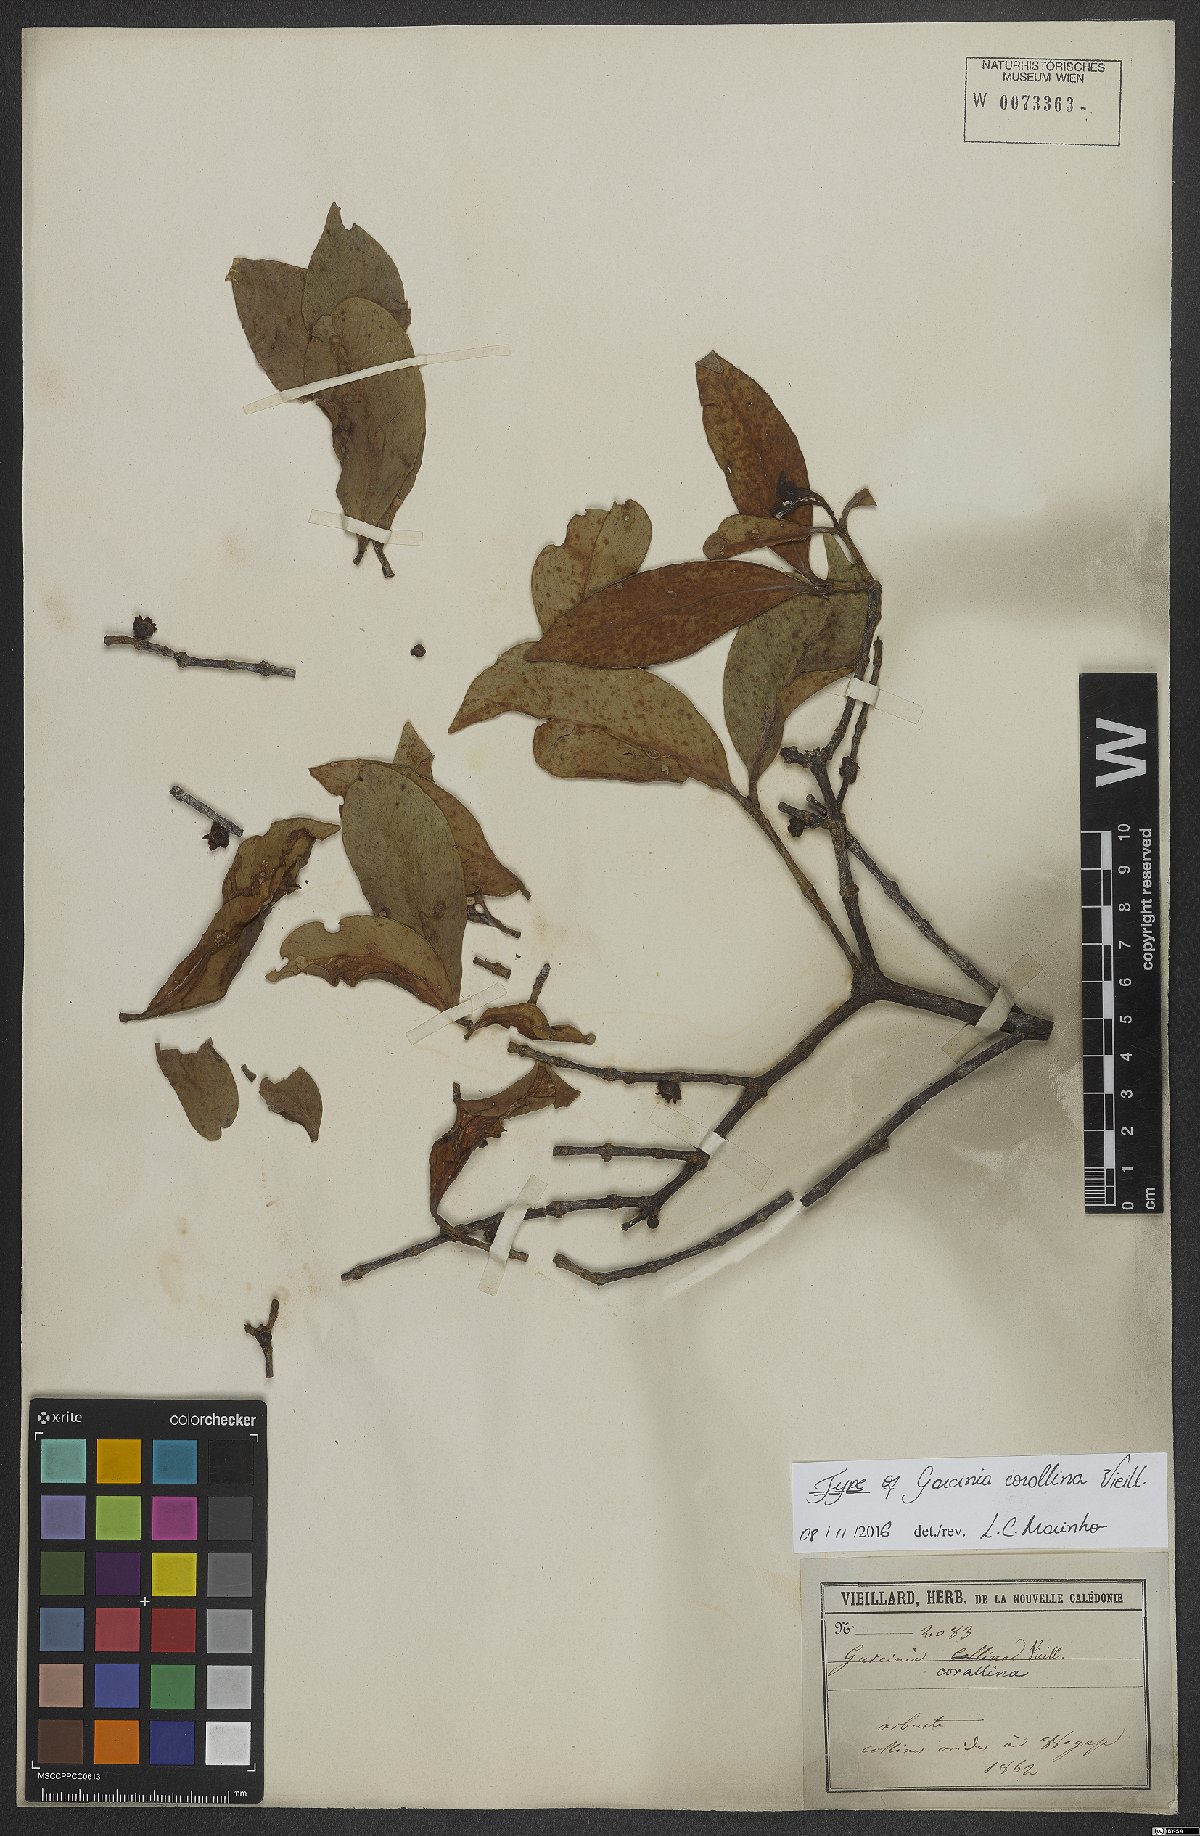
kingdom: Plantae
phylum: Tracheophyta
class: Magnoliopsida
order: Malpighiales
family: Clusiaceae
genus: Garcinia
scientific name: Garcinia corallina
